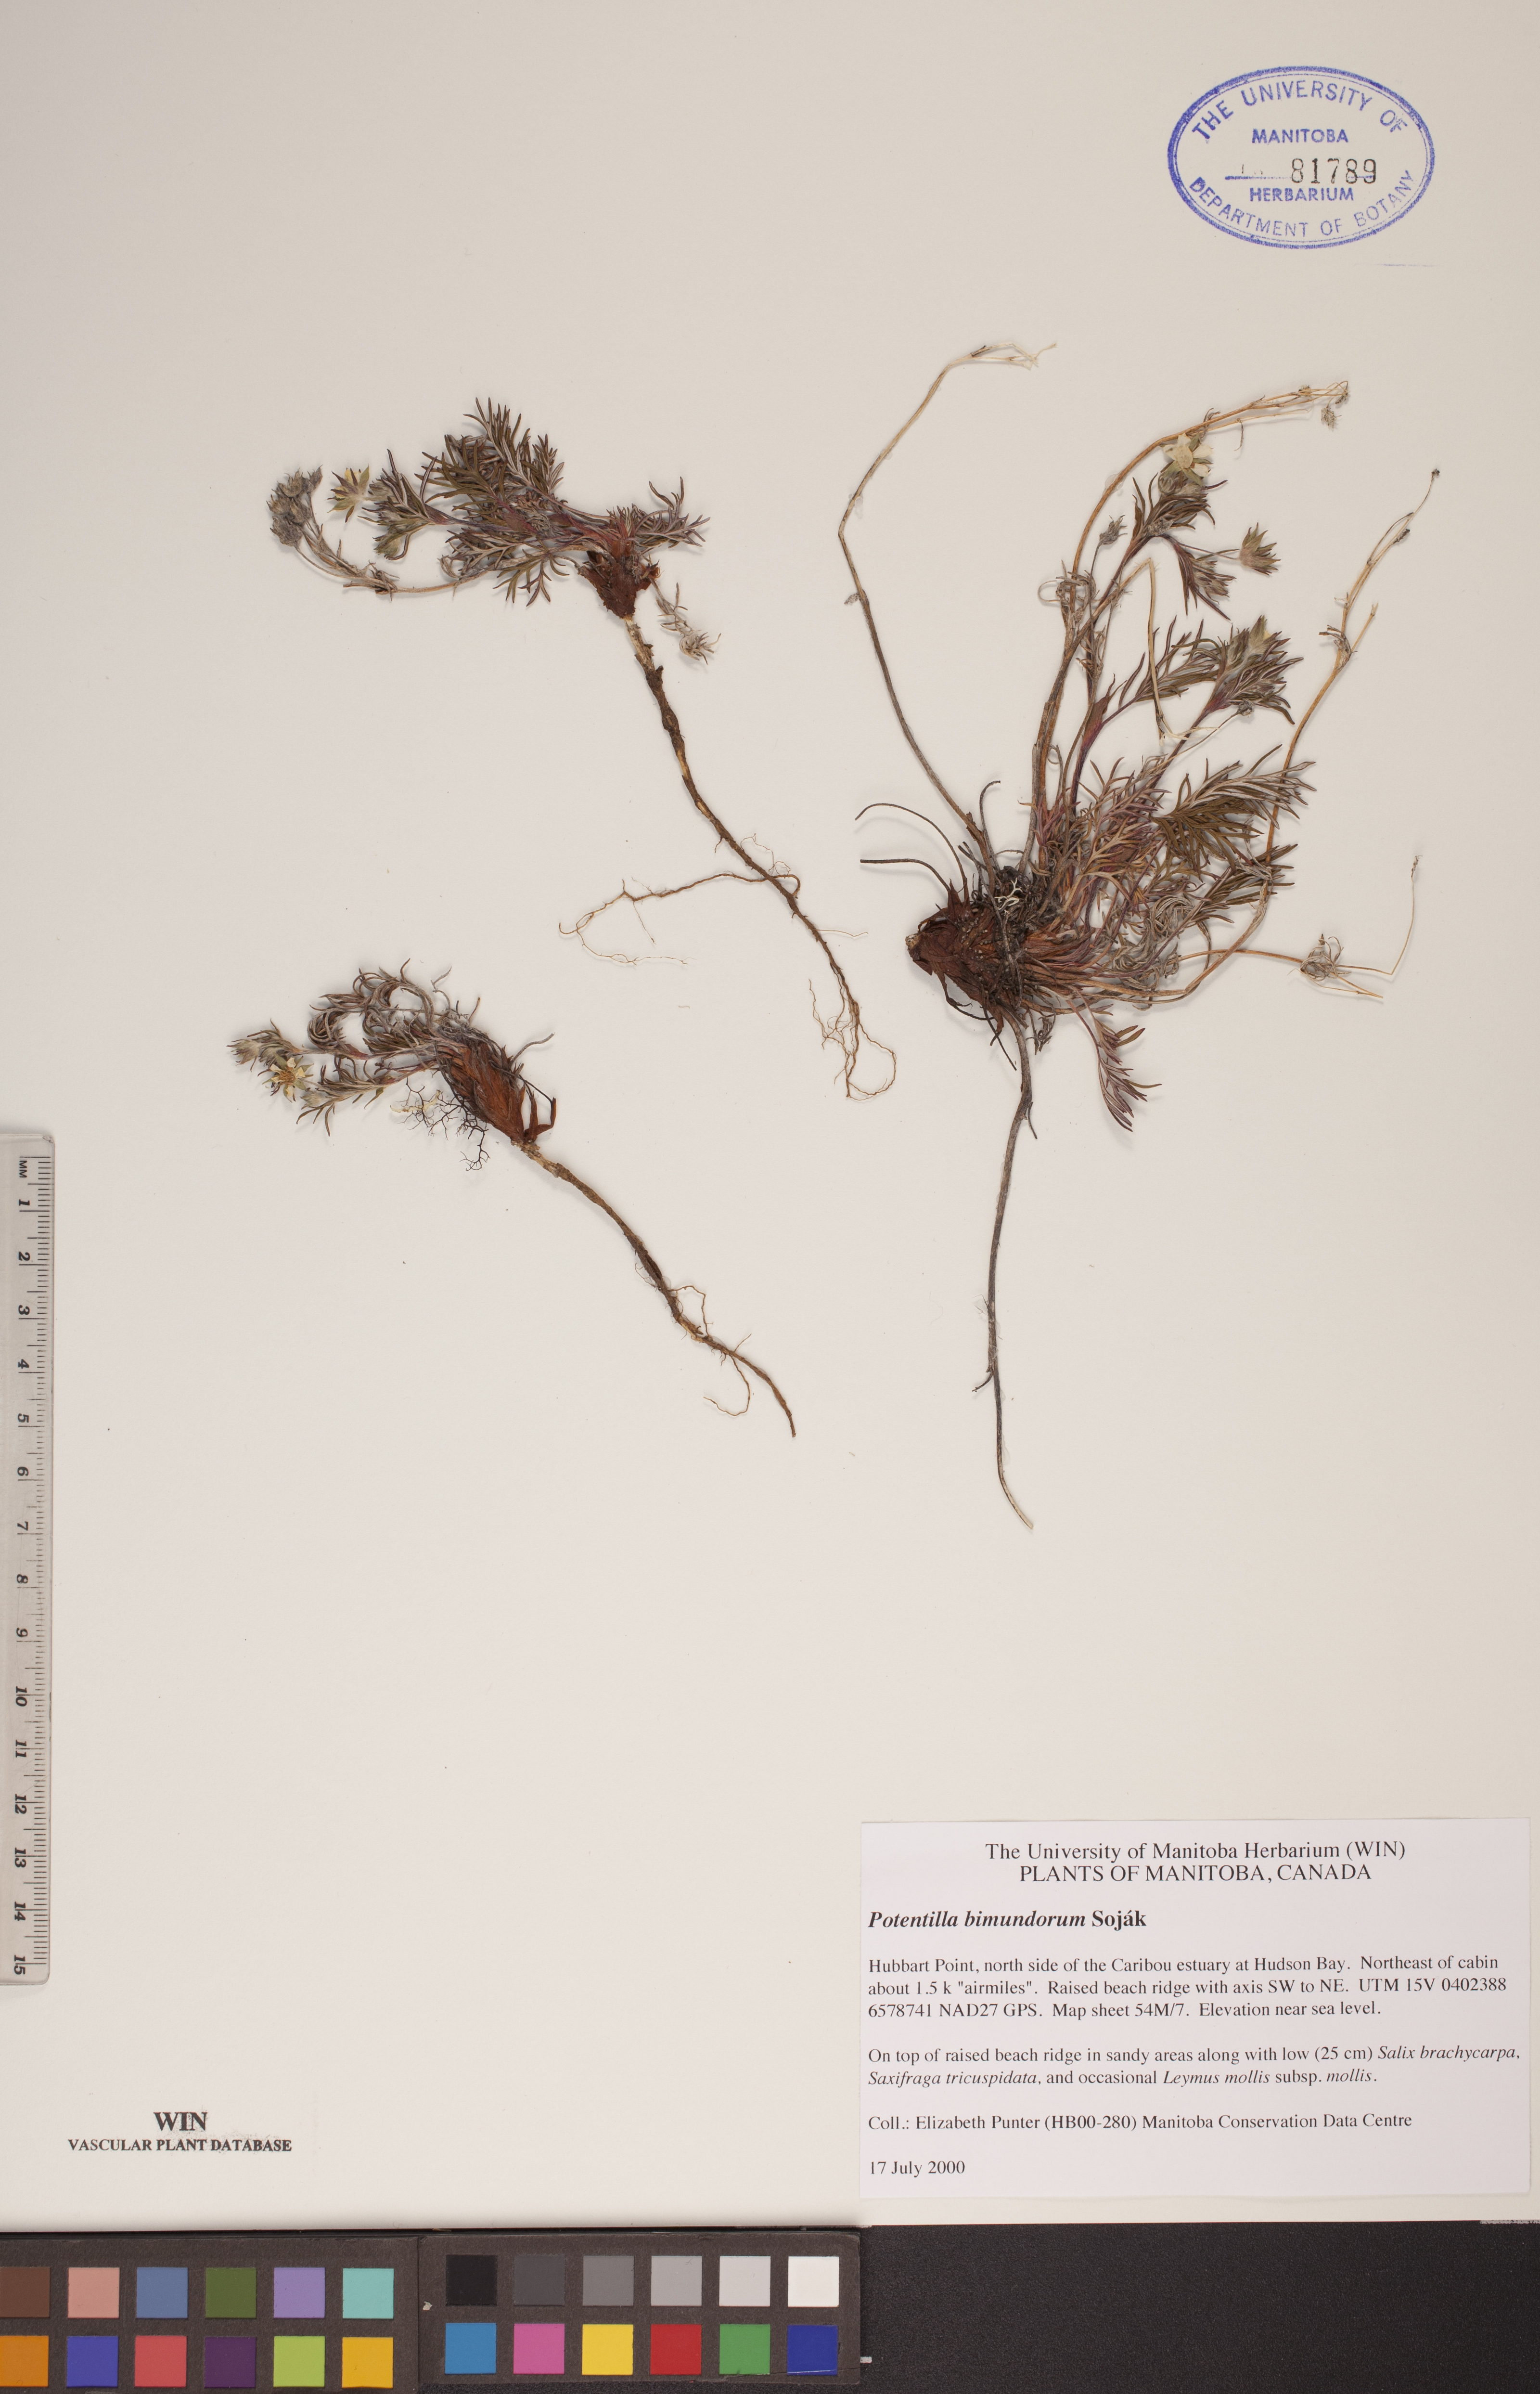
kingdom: Plantae
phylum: Tracheophyta
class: Magnoliopsida
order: Rosales
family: Rosaceae
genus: Potentilla
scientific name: Potentilla bimundorum
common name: Cut-leaved cinquefoil
